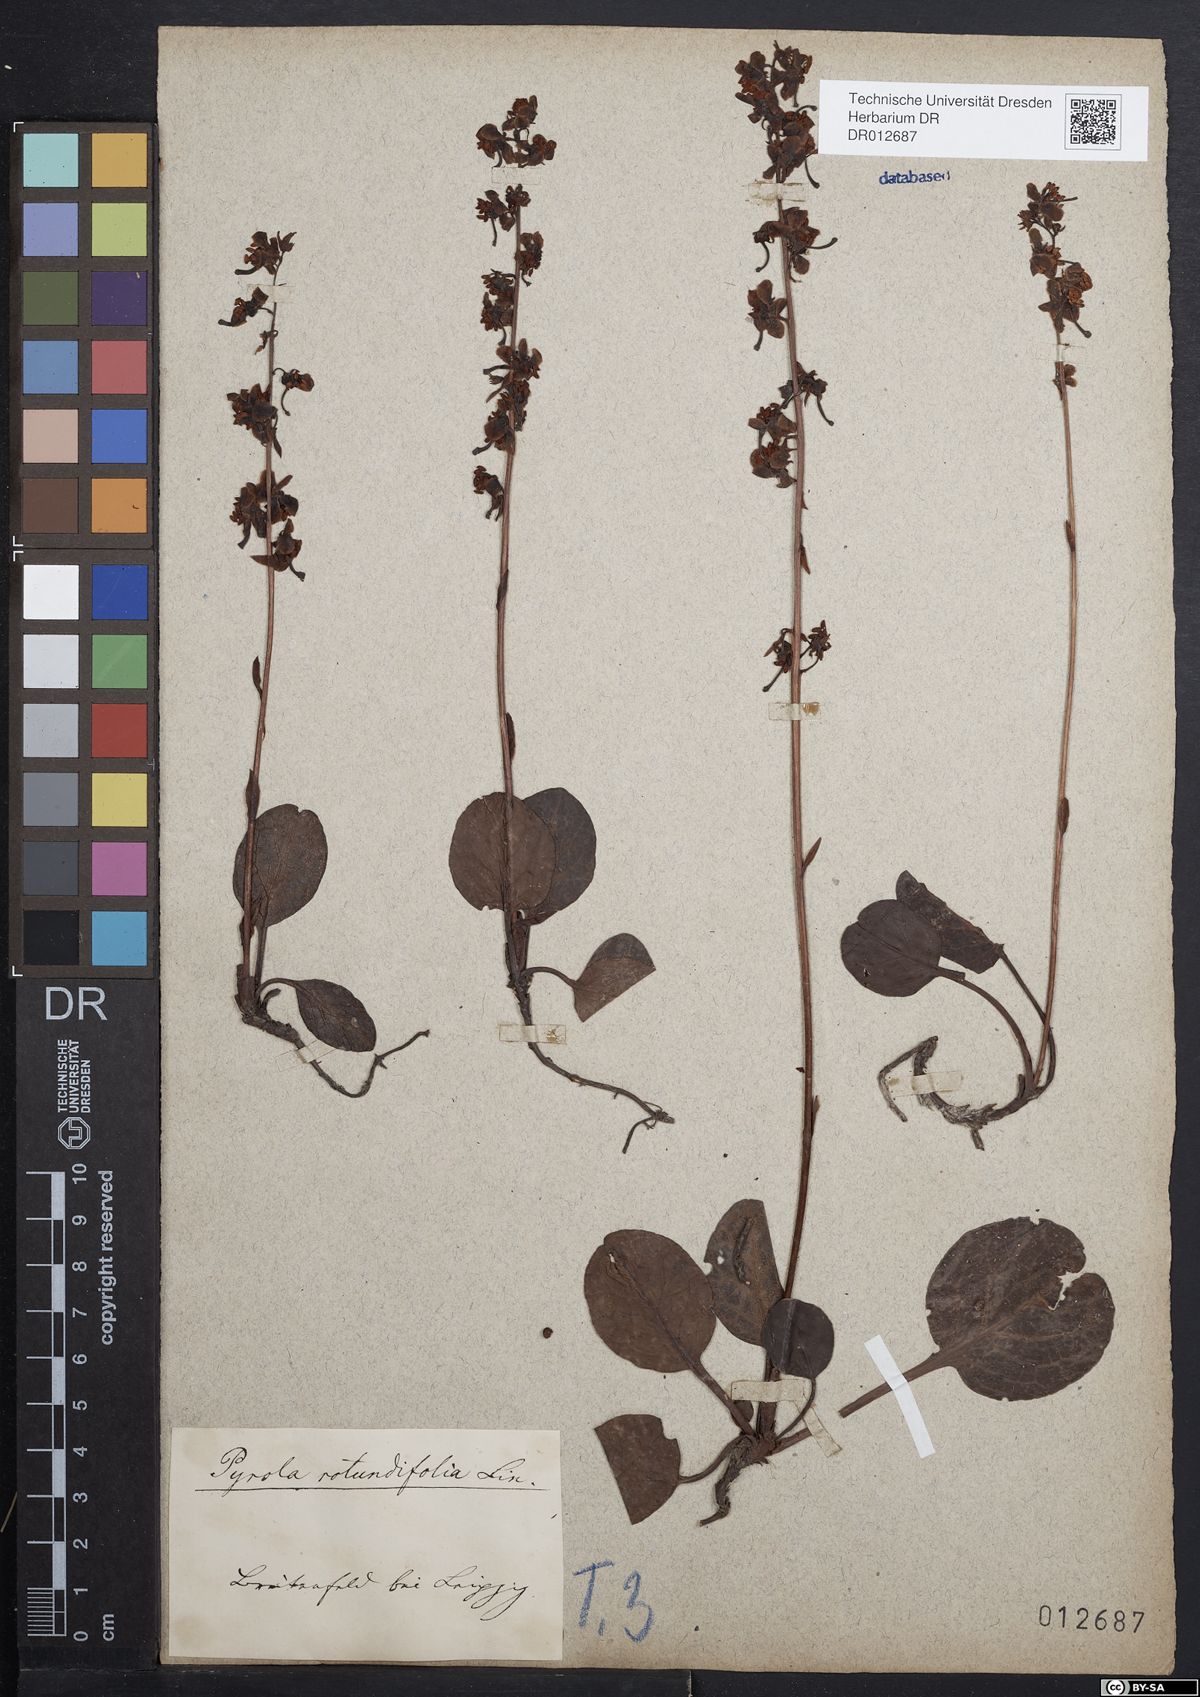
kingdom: Plantae
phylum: Tracheophyta
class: Magnoliopsida
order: Ericales
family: Ericaceae
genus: Pyrola
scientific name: Pyrola rotundifolia
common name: Round-leaved wintergreen
